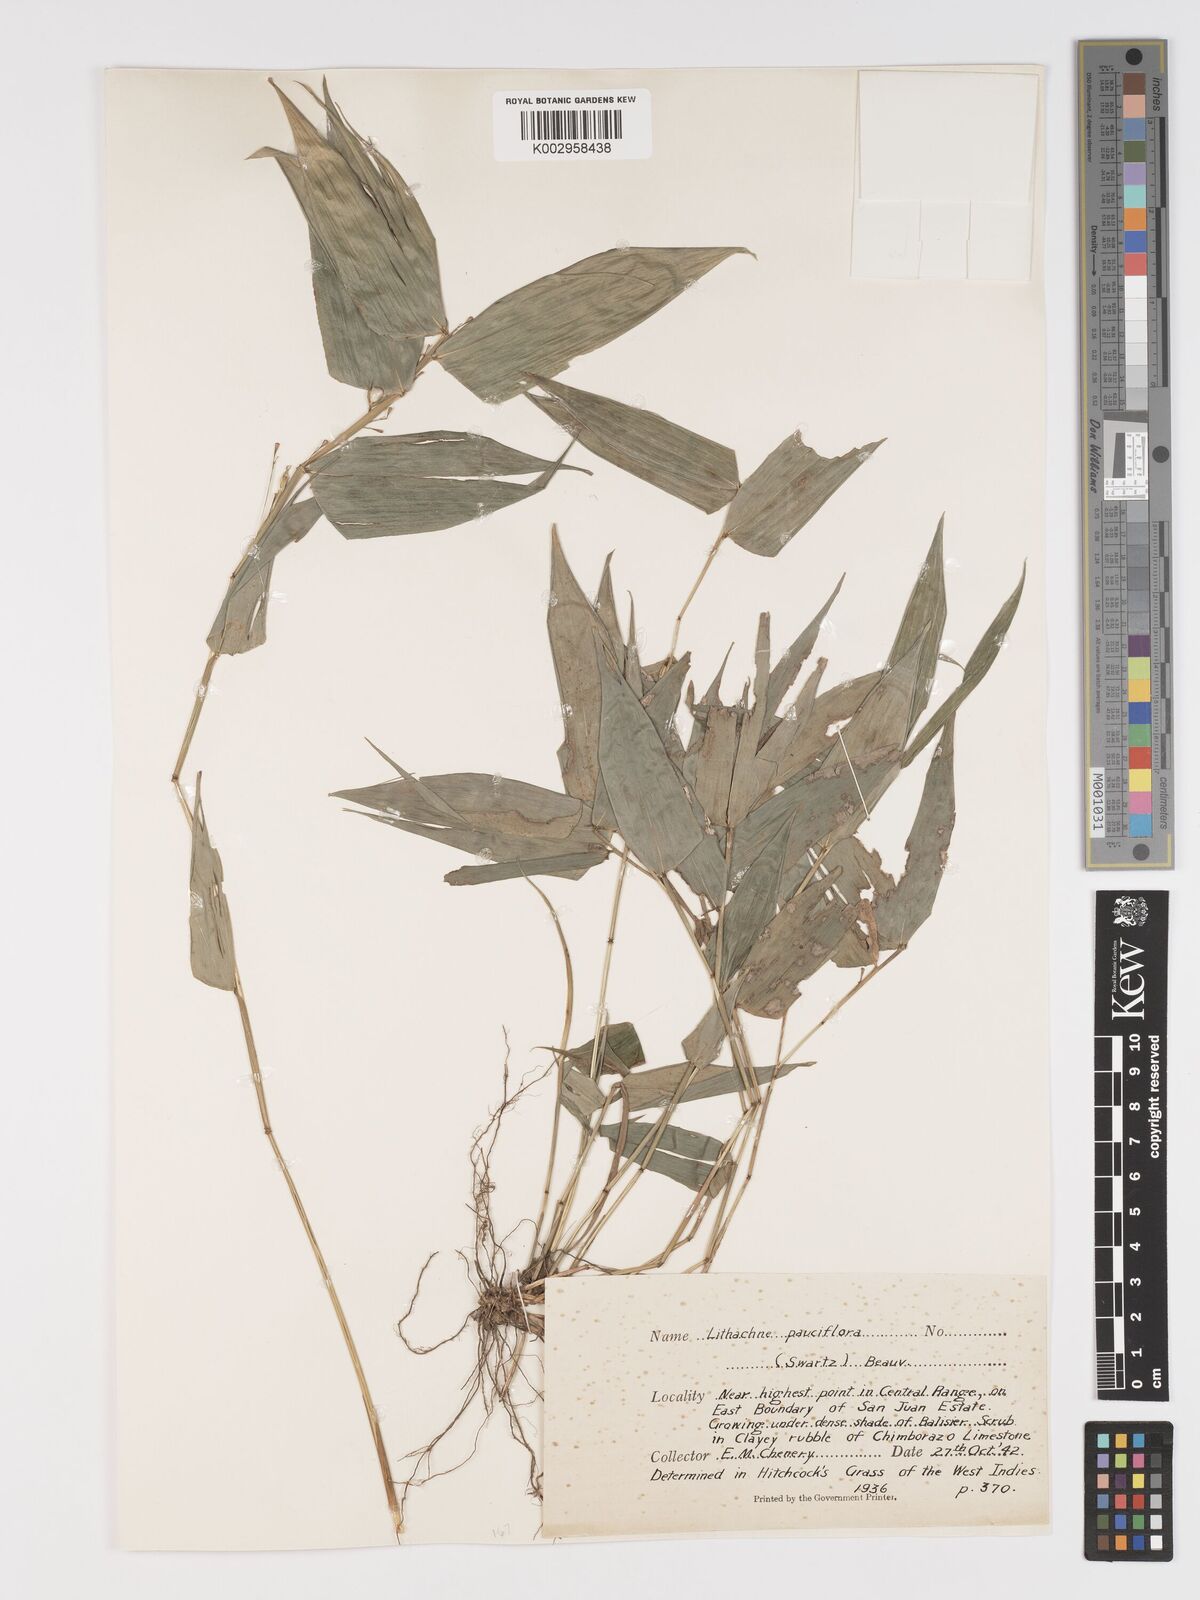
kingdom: Plantae
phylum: Tracheophyta
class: Liliopsida
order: Poales
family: Poaceae
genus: Lithachne
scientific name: Lithachne pauciflora
